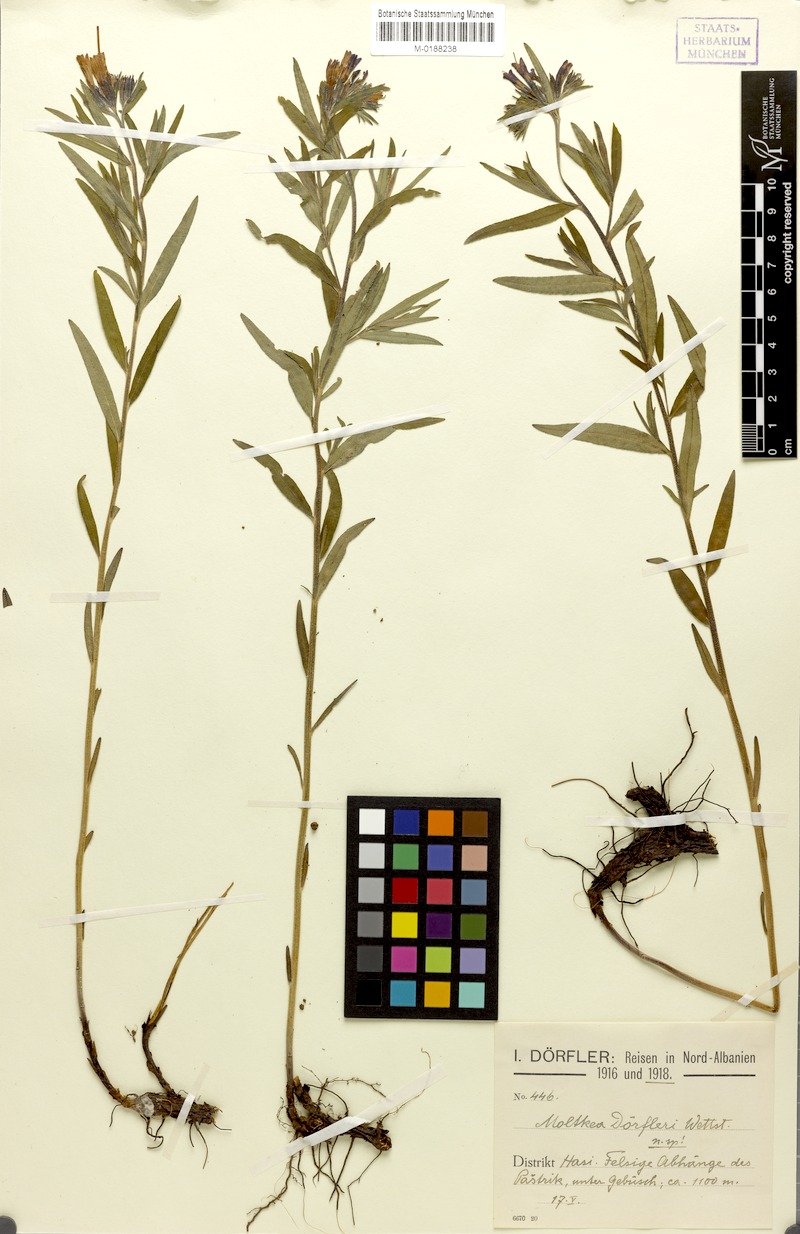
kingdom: Plantae
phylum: Tracheophyta
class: Magnoliopsida
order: Boraginales
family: Boraginaceae
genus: Paramoltkia
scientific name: Paramoltkia doerfleri
